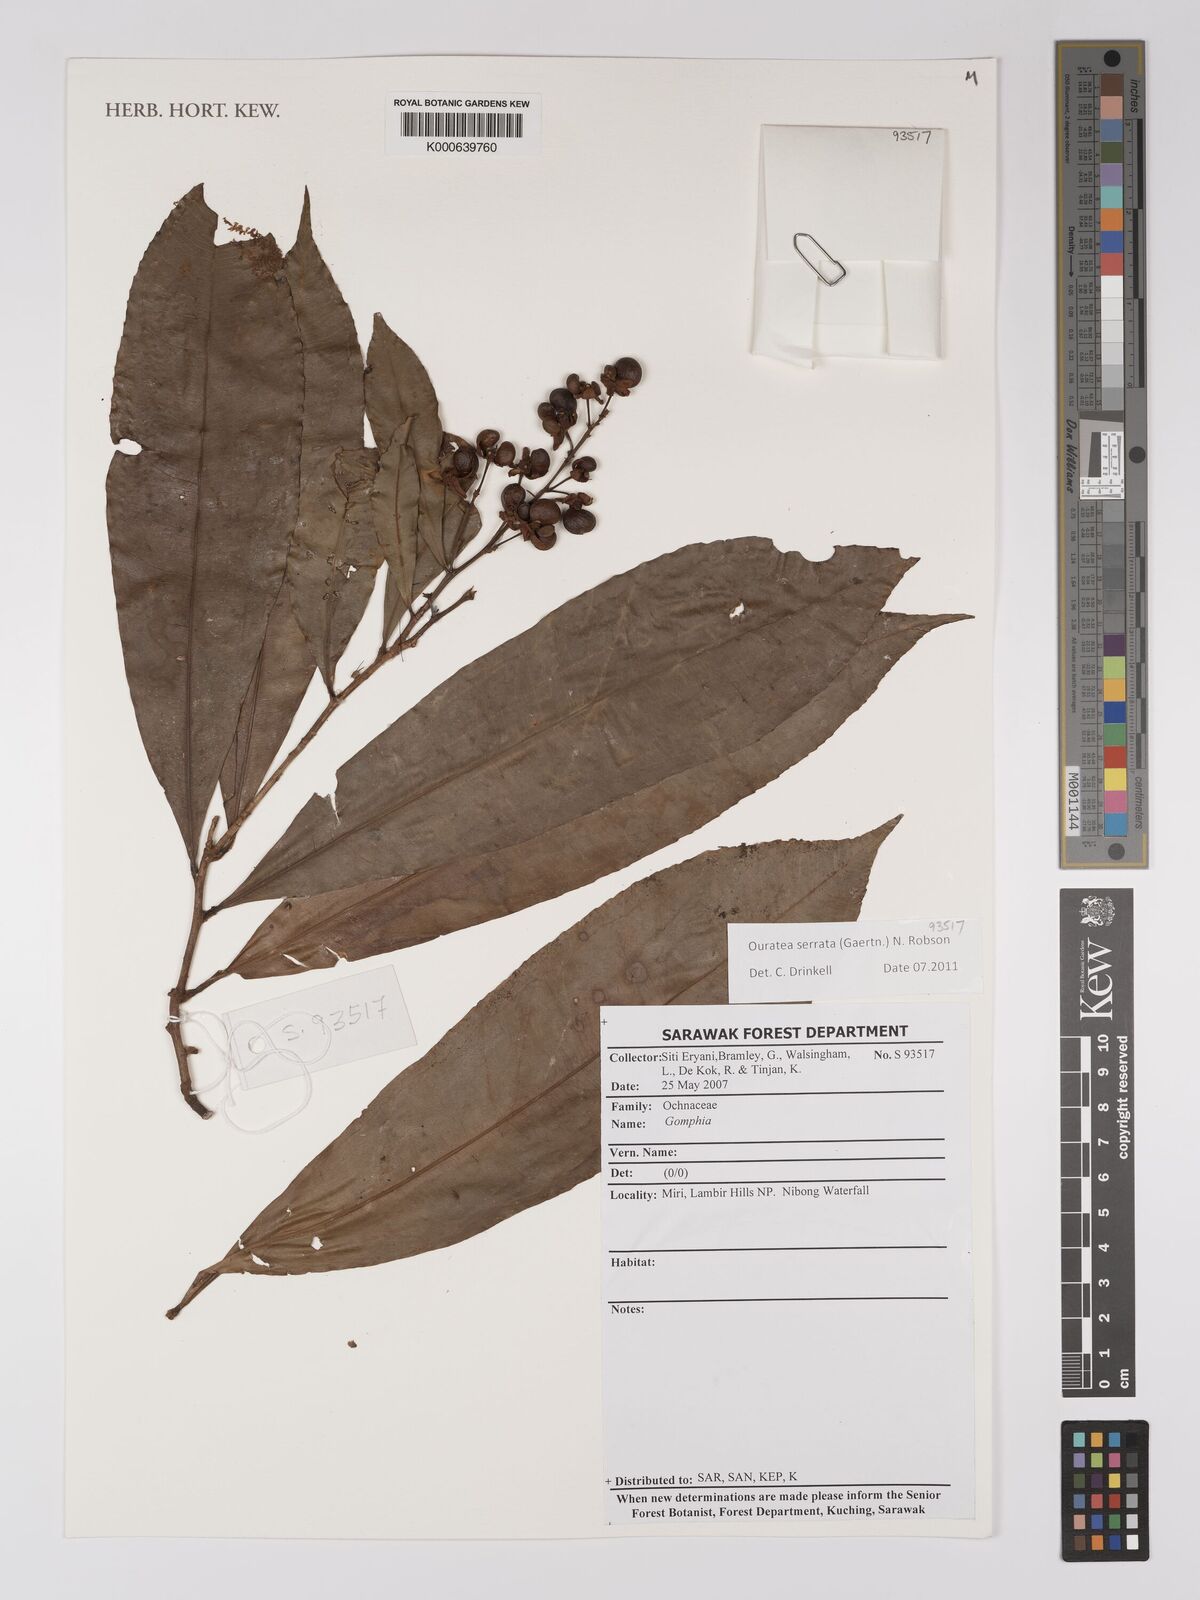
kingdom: Plantae
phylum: Tracheophyta
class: Magnoliopsida
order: Malpighiales
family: Ochnaceae
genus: Gomphia
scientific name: Gomphia serrata
